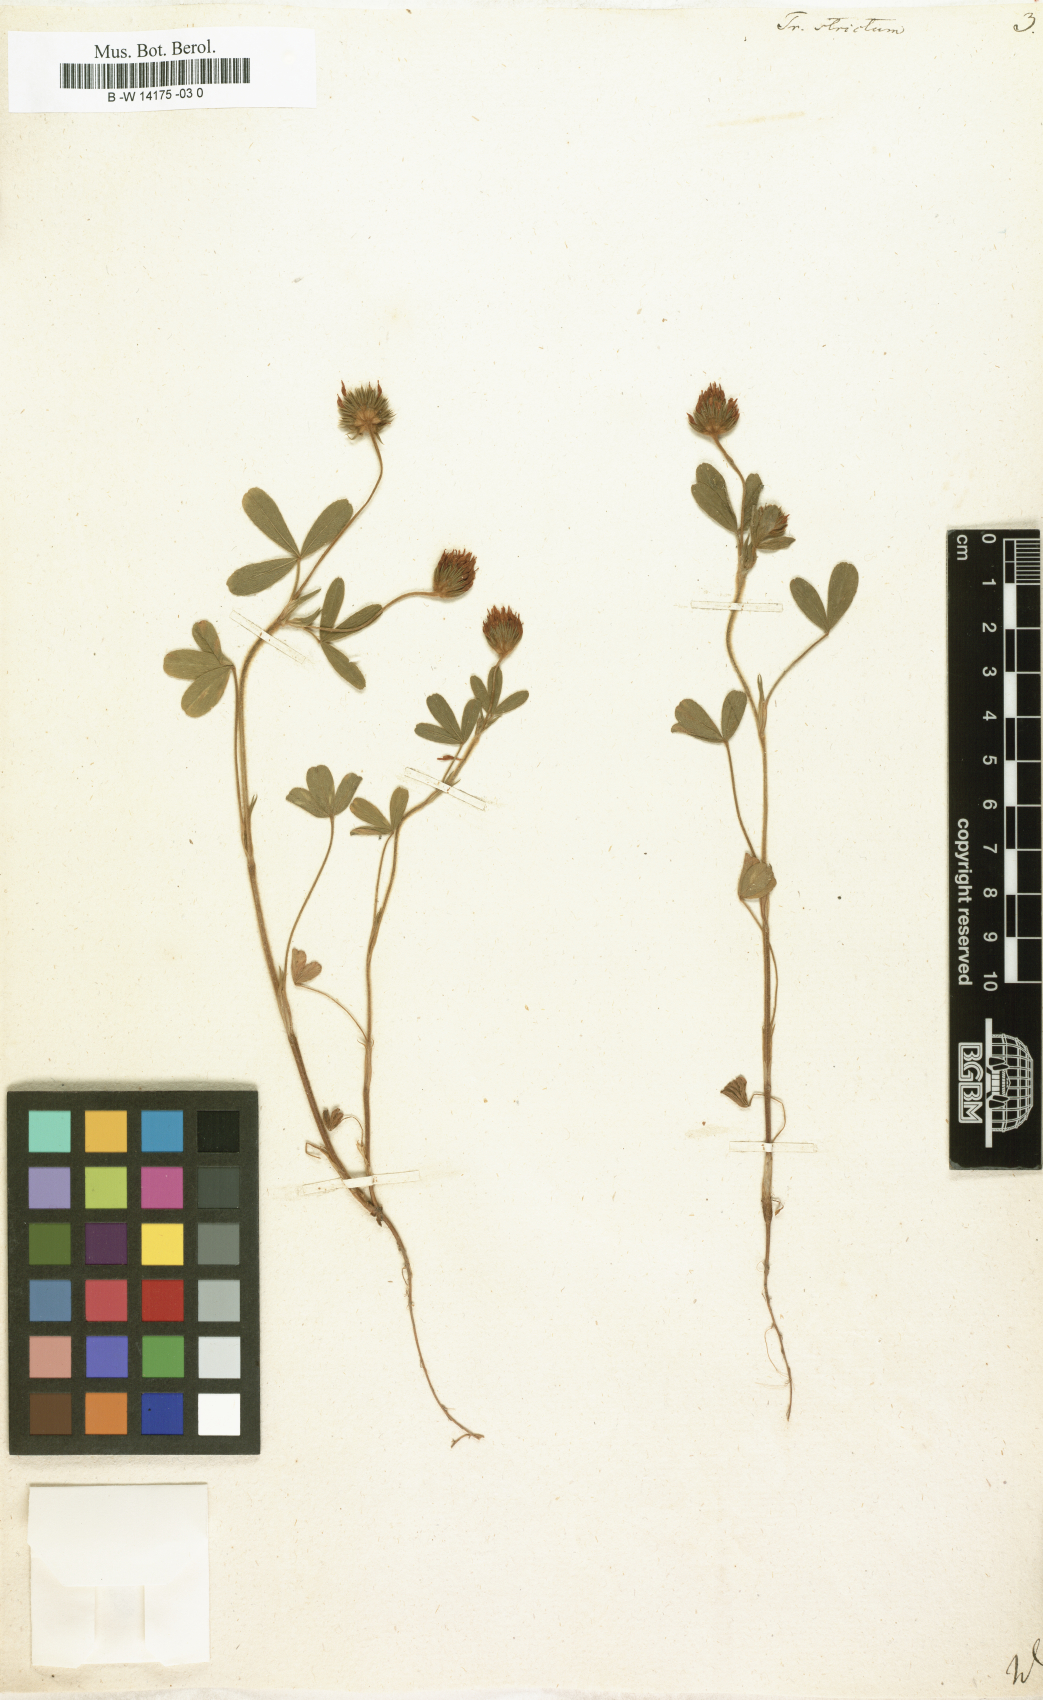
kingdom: Plantae
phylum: Tracheophyta
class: Magnoliopsida
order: Fabales
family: Fabaceae
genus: Trifolium
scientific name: Trifolium strictum
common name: Upright clover
